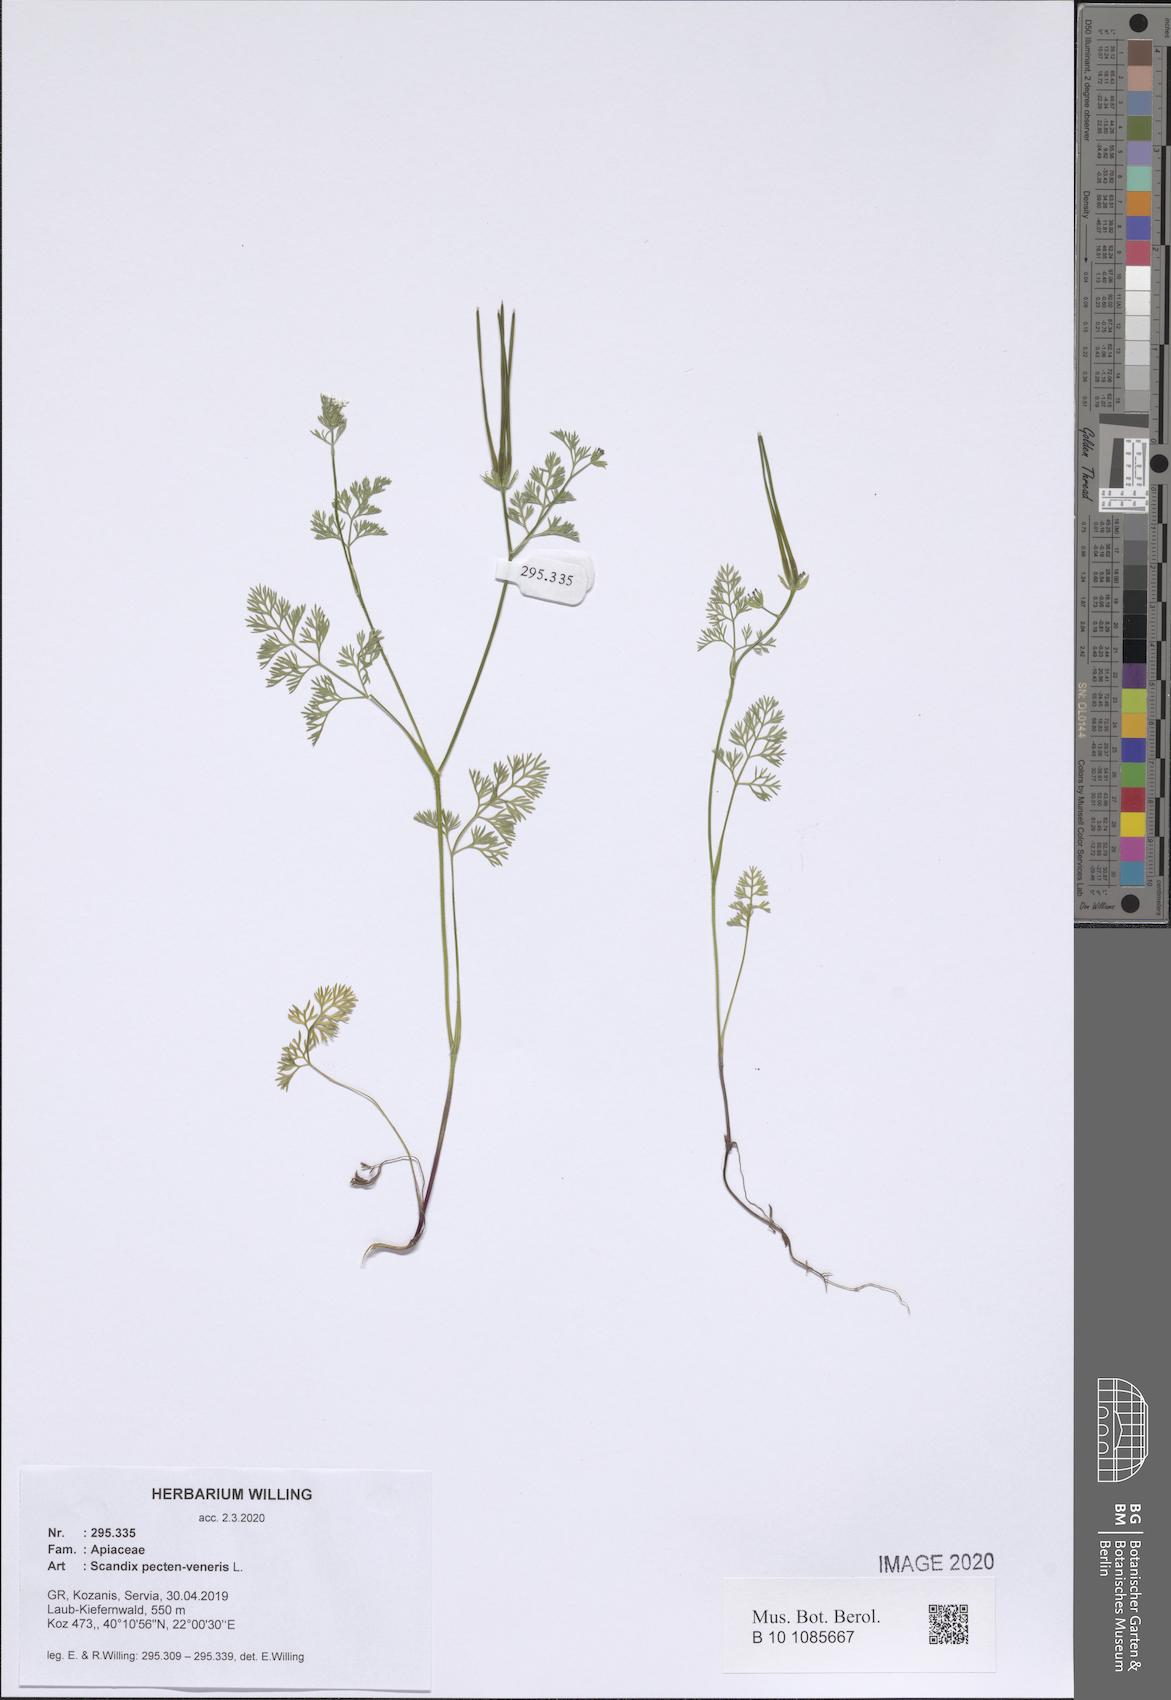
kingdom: Plantae
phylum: Tracheophyta
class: Magnoliopsida
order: Apiales
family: Apiaceae
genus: Scandix
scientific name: Scandix pecten-veneris
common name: Shepherd's-needle
